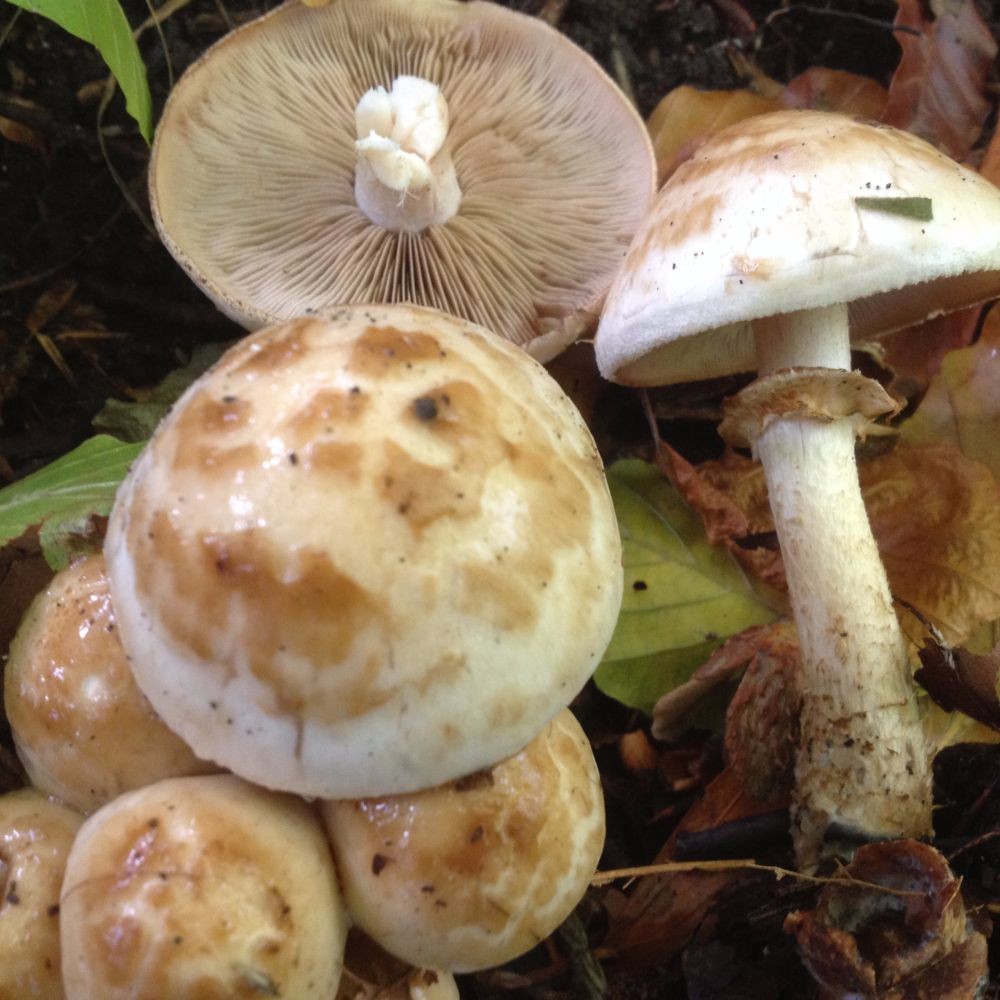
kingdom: Fungi
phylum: Basidiomycota
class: Agaricomycetes
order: Agaricales
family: Hymenogastraceae
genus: Hebeloma
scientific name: Hebeloma radicosum
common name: pælerods-tåreblad
